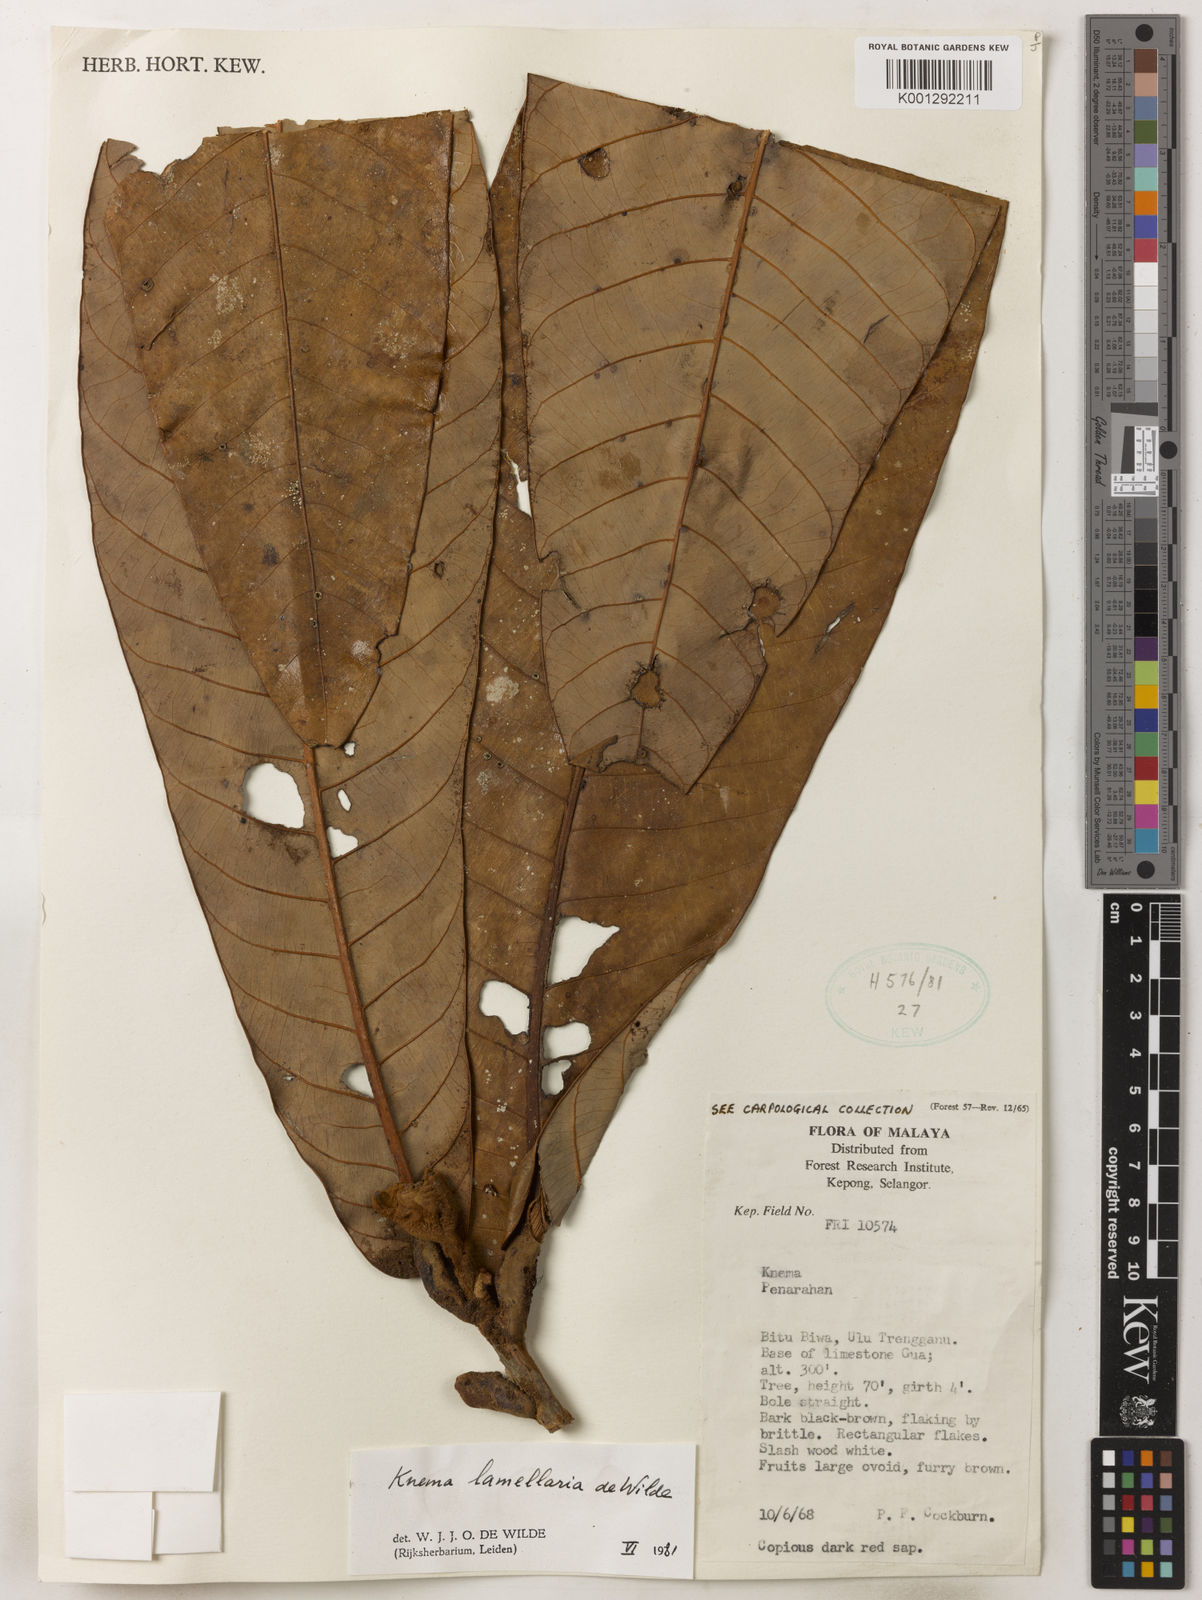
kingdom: Plantae
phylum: Tracheophyta
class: Magnoliopsida
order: Magnoliales
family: Myristicaceae
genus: Knema
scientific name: Knema lamellaria
